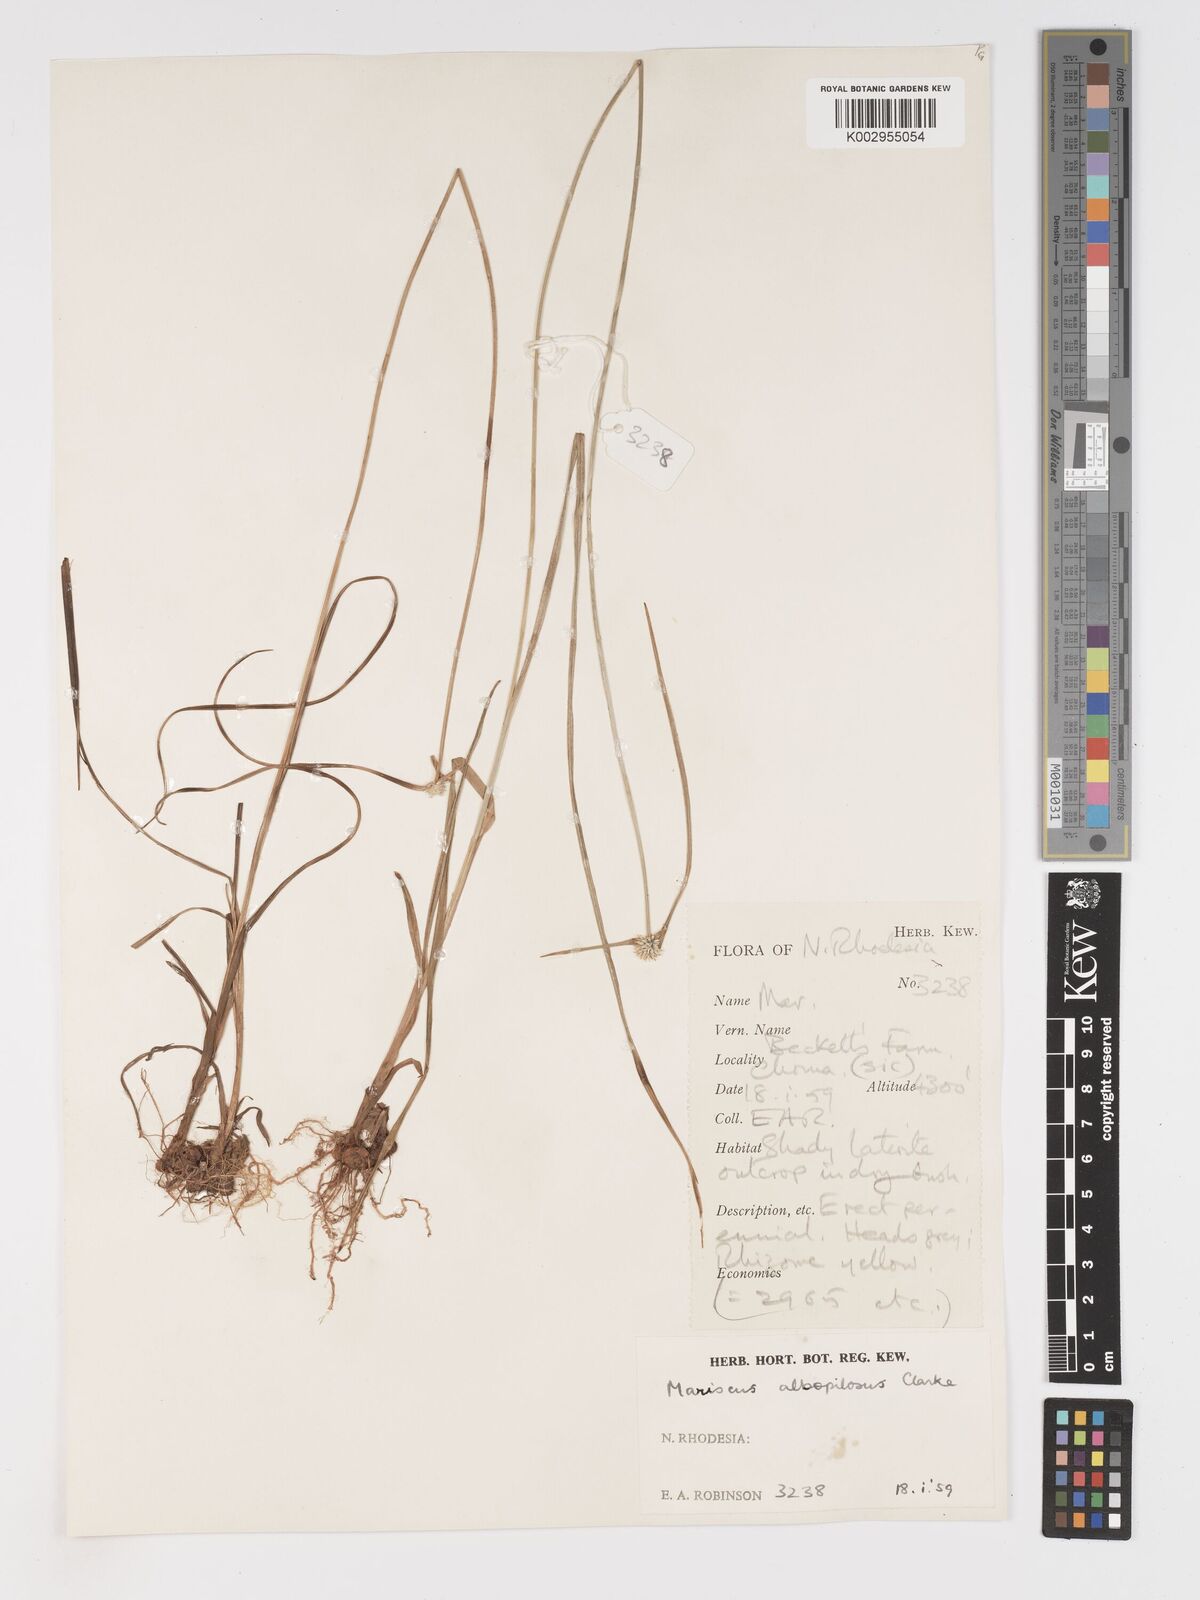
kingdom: Plantae
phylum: Tracheophyta
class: Liliopsida
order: Poales
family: Cyperaceae
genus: Cyperus
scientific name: Cyperus albopilosus
